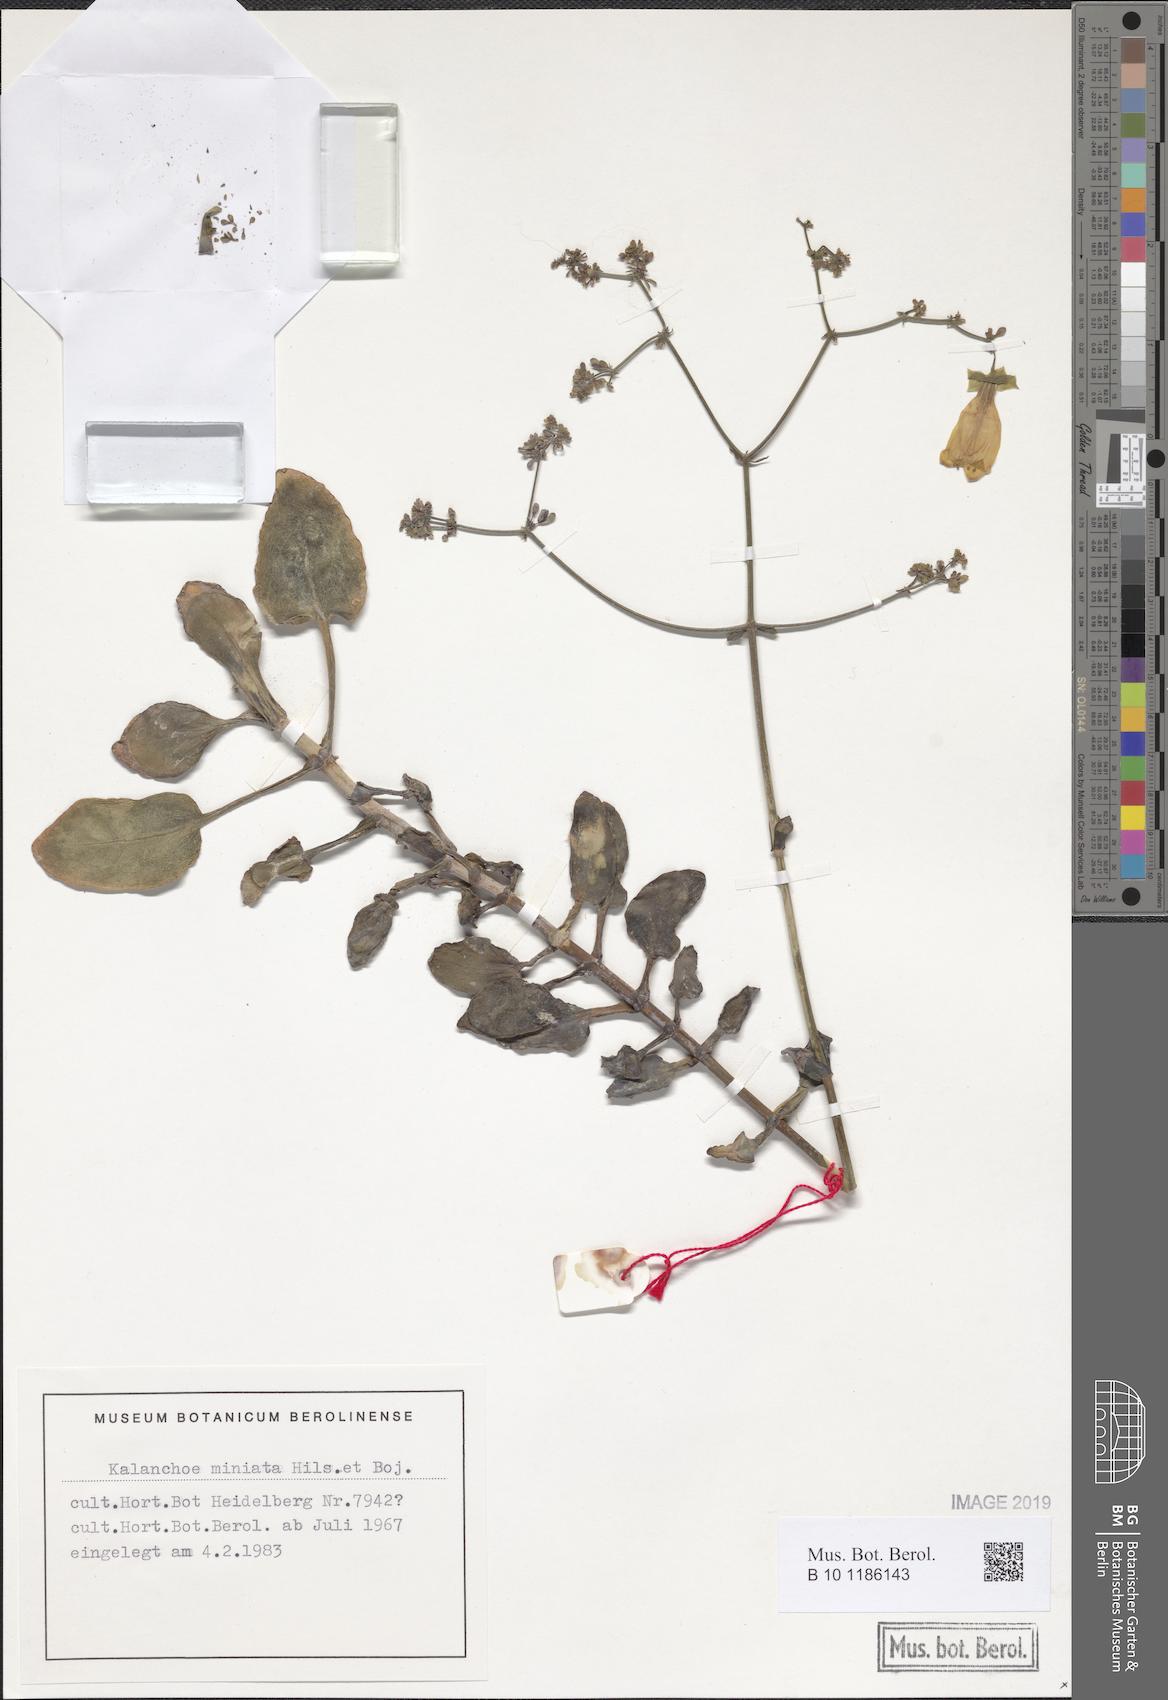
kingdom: Plantae
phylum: Tracheophyta
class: Magnoliopsida
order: Saxifragales
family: Crassulaceae
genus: Kalanchoe
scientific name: Kalanchoe miniata
